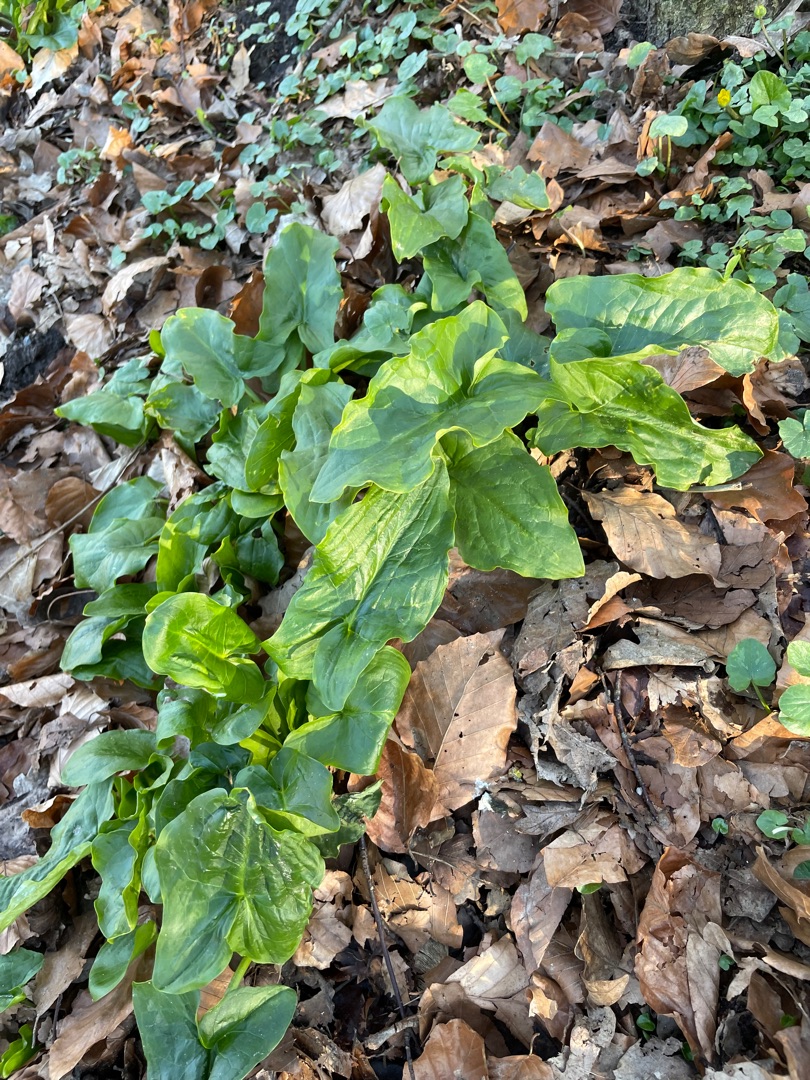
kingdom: Plantae
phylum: Tracheophyta
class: Liliopsida
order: Alismatales
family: Araceae
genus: Arum
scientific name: Arum
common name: Arumslægten
